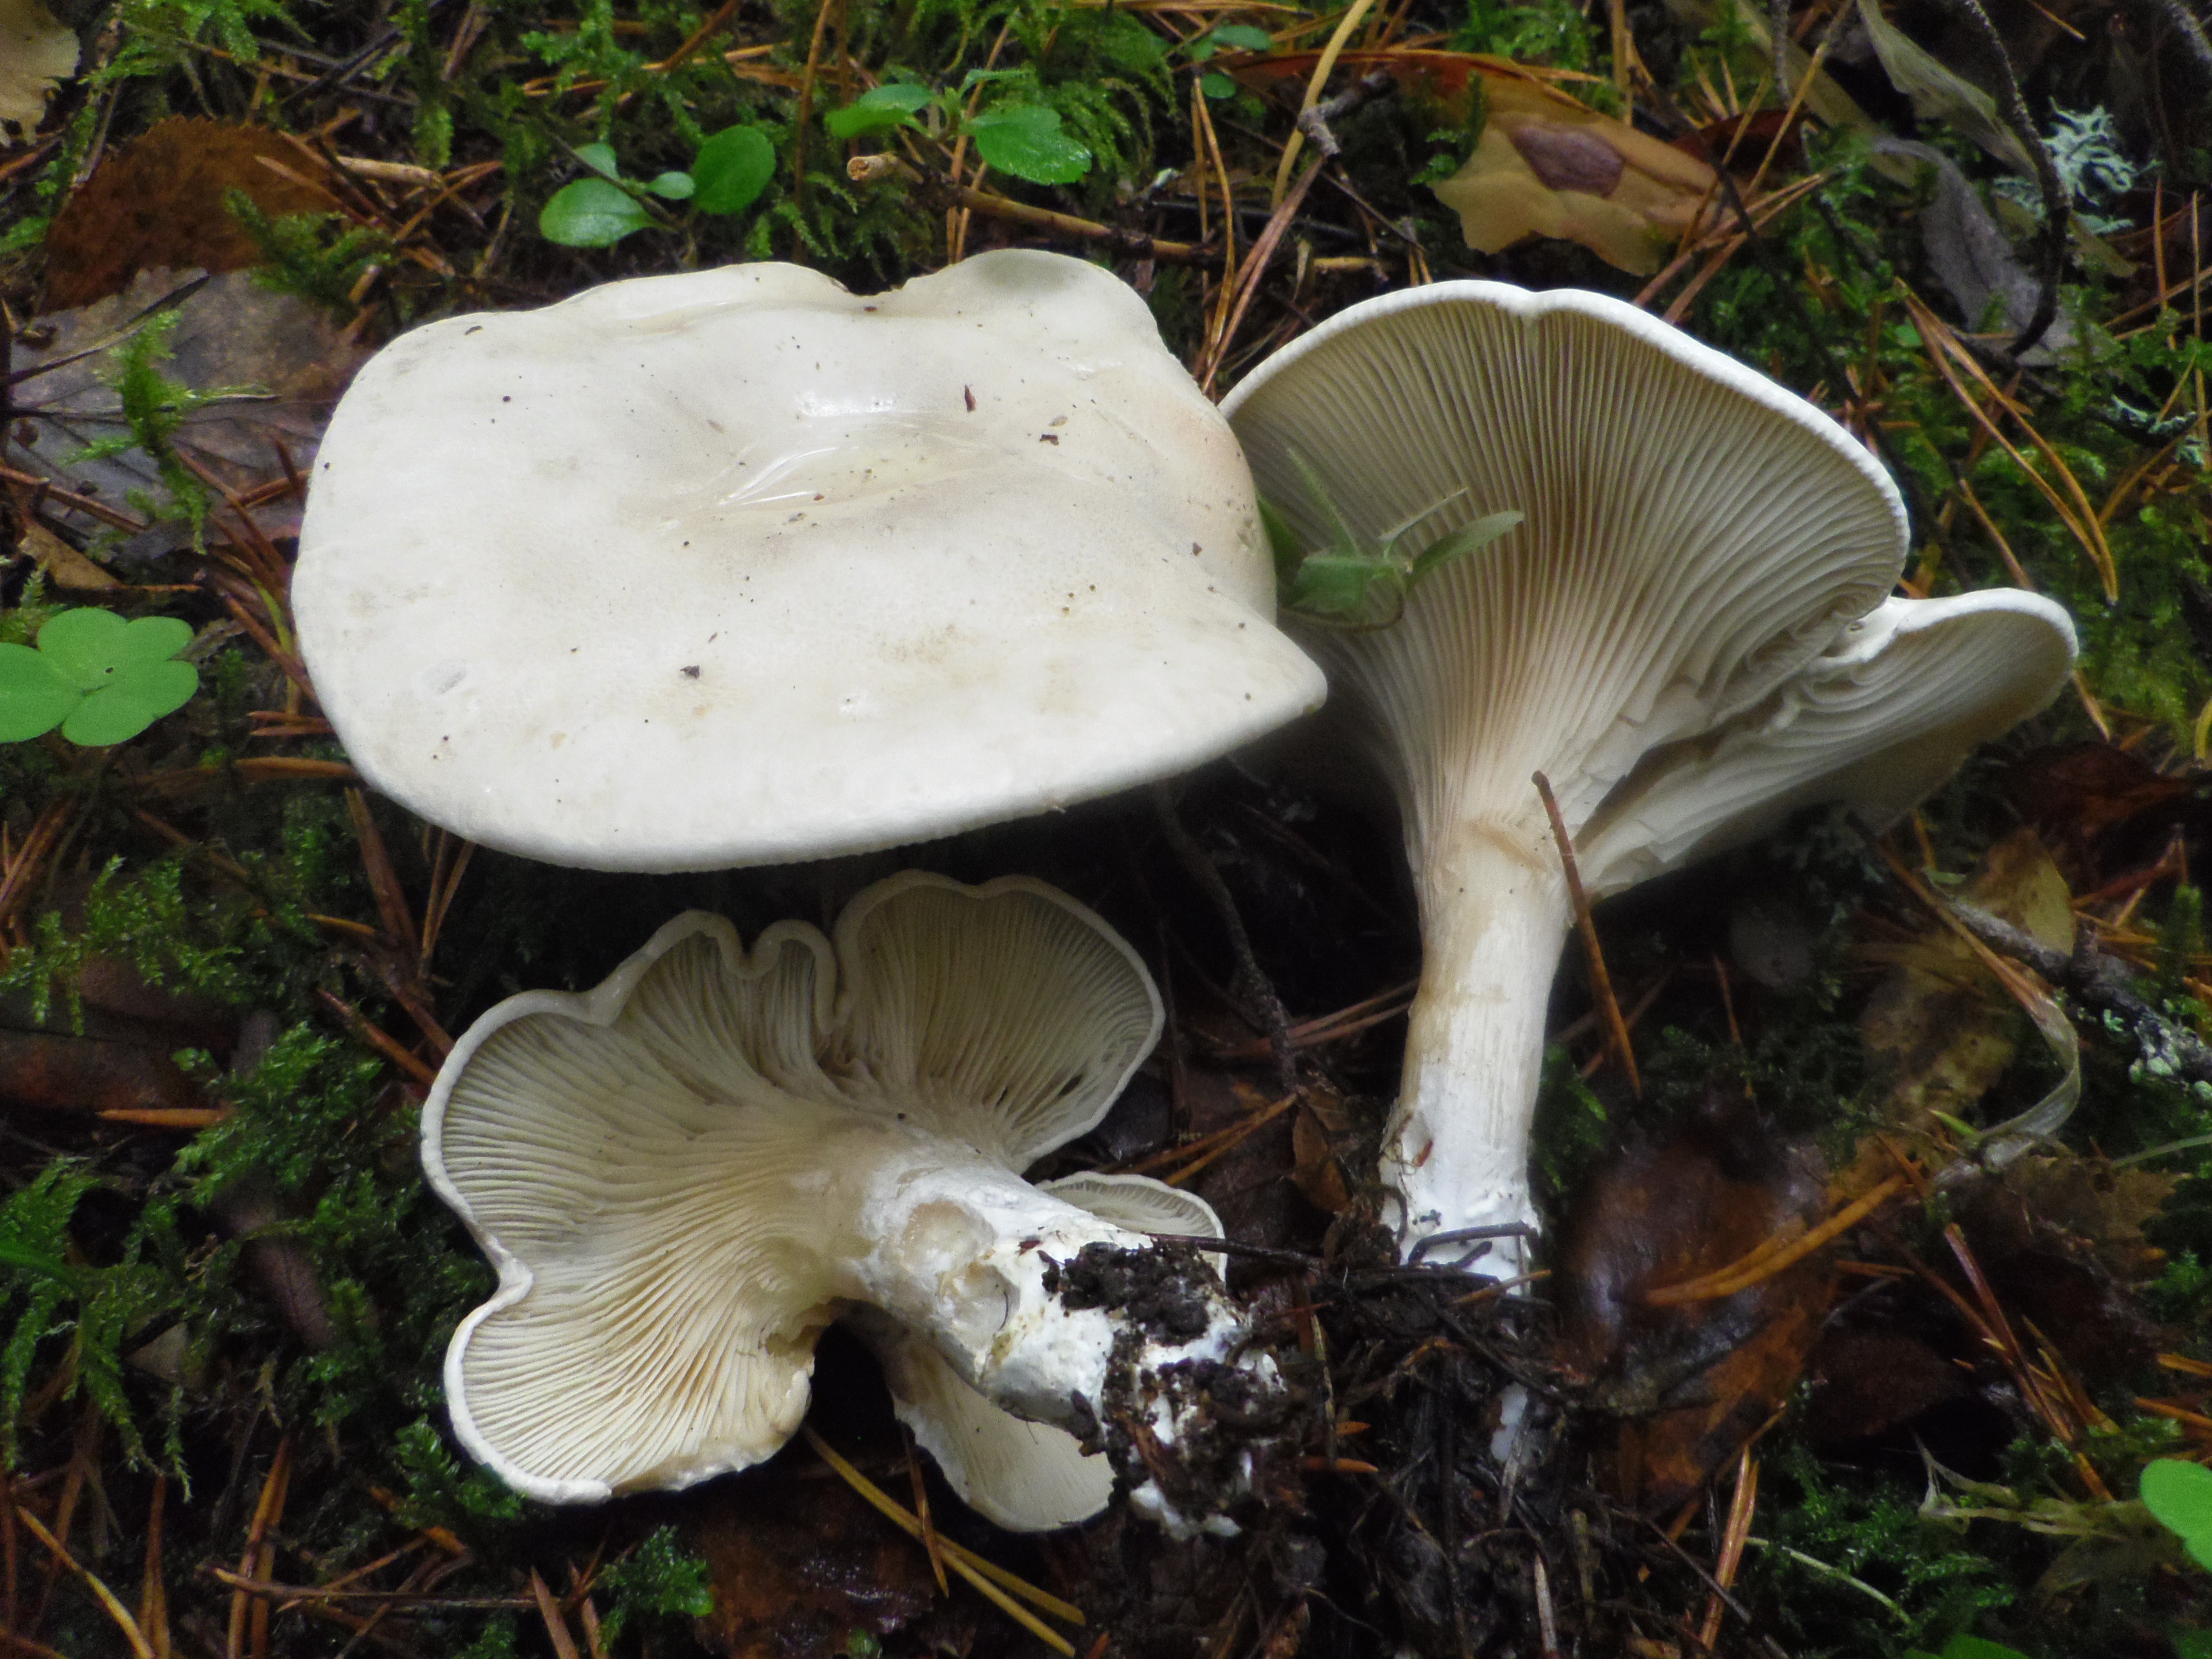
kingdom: Fungi
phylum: Basidiomycota
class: Agaricomycetes
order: Agaricales
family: Entolomataceae
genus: Clitopilus
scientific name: Clitopilus prunulus
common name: The miller
